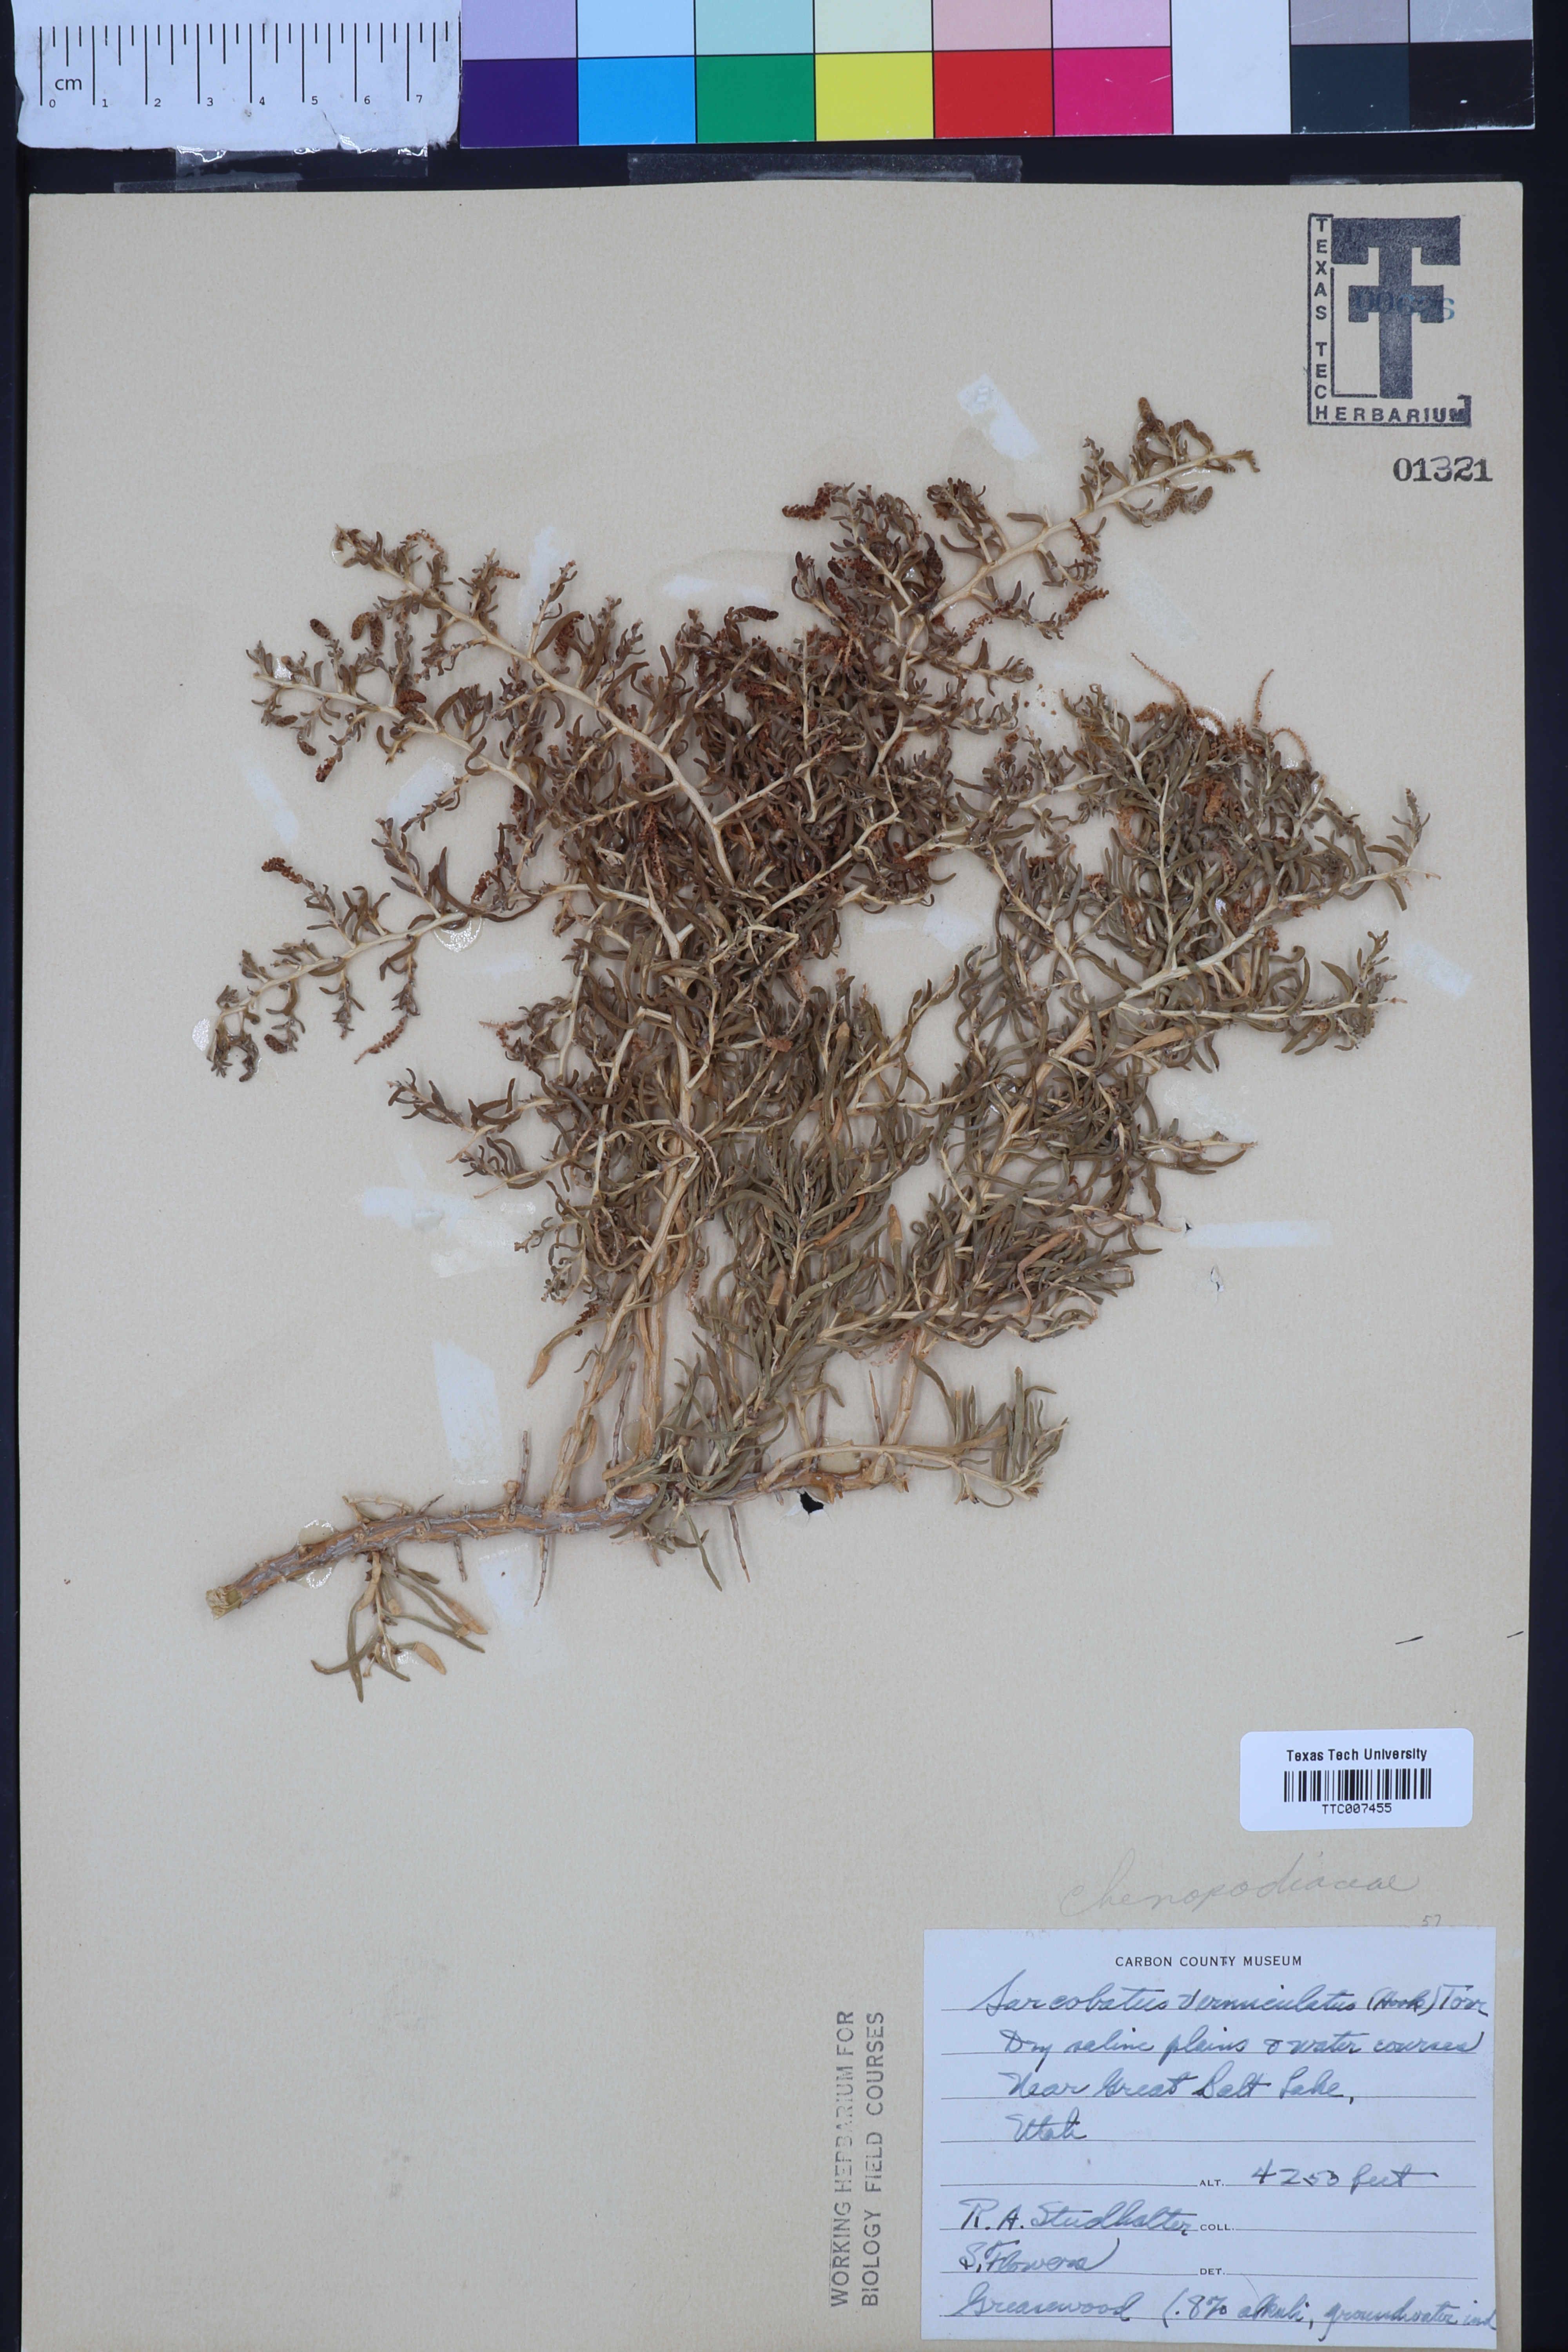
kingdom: Plantae
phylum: Tracheophyta
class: Magnoliopsida
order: Caryophyllales
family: Sarcobataceae
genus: Sarcobatus
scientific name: Sarcobatus vermiculatus
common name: Greasewood
